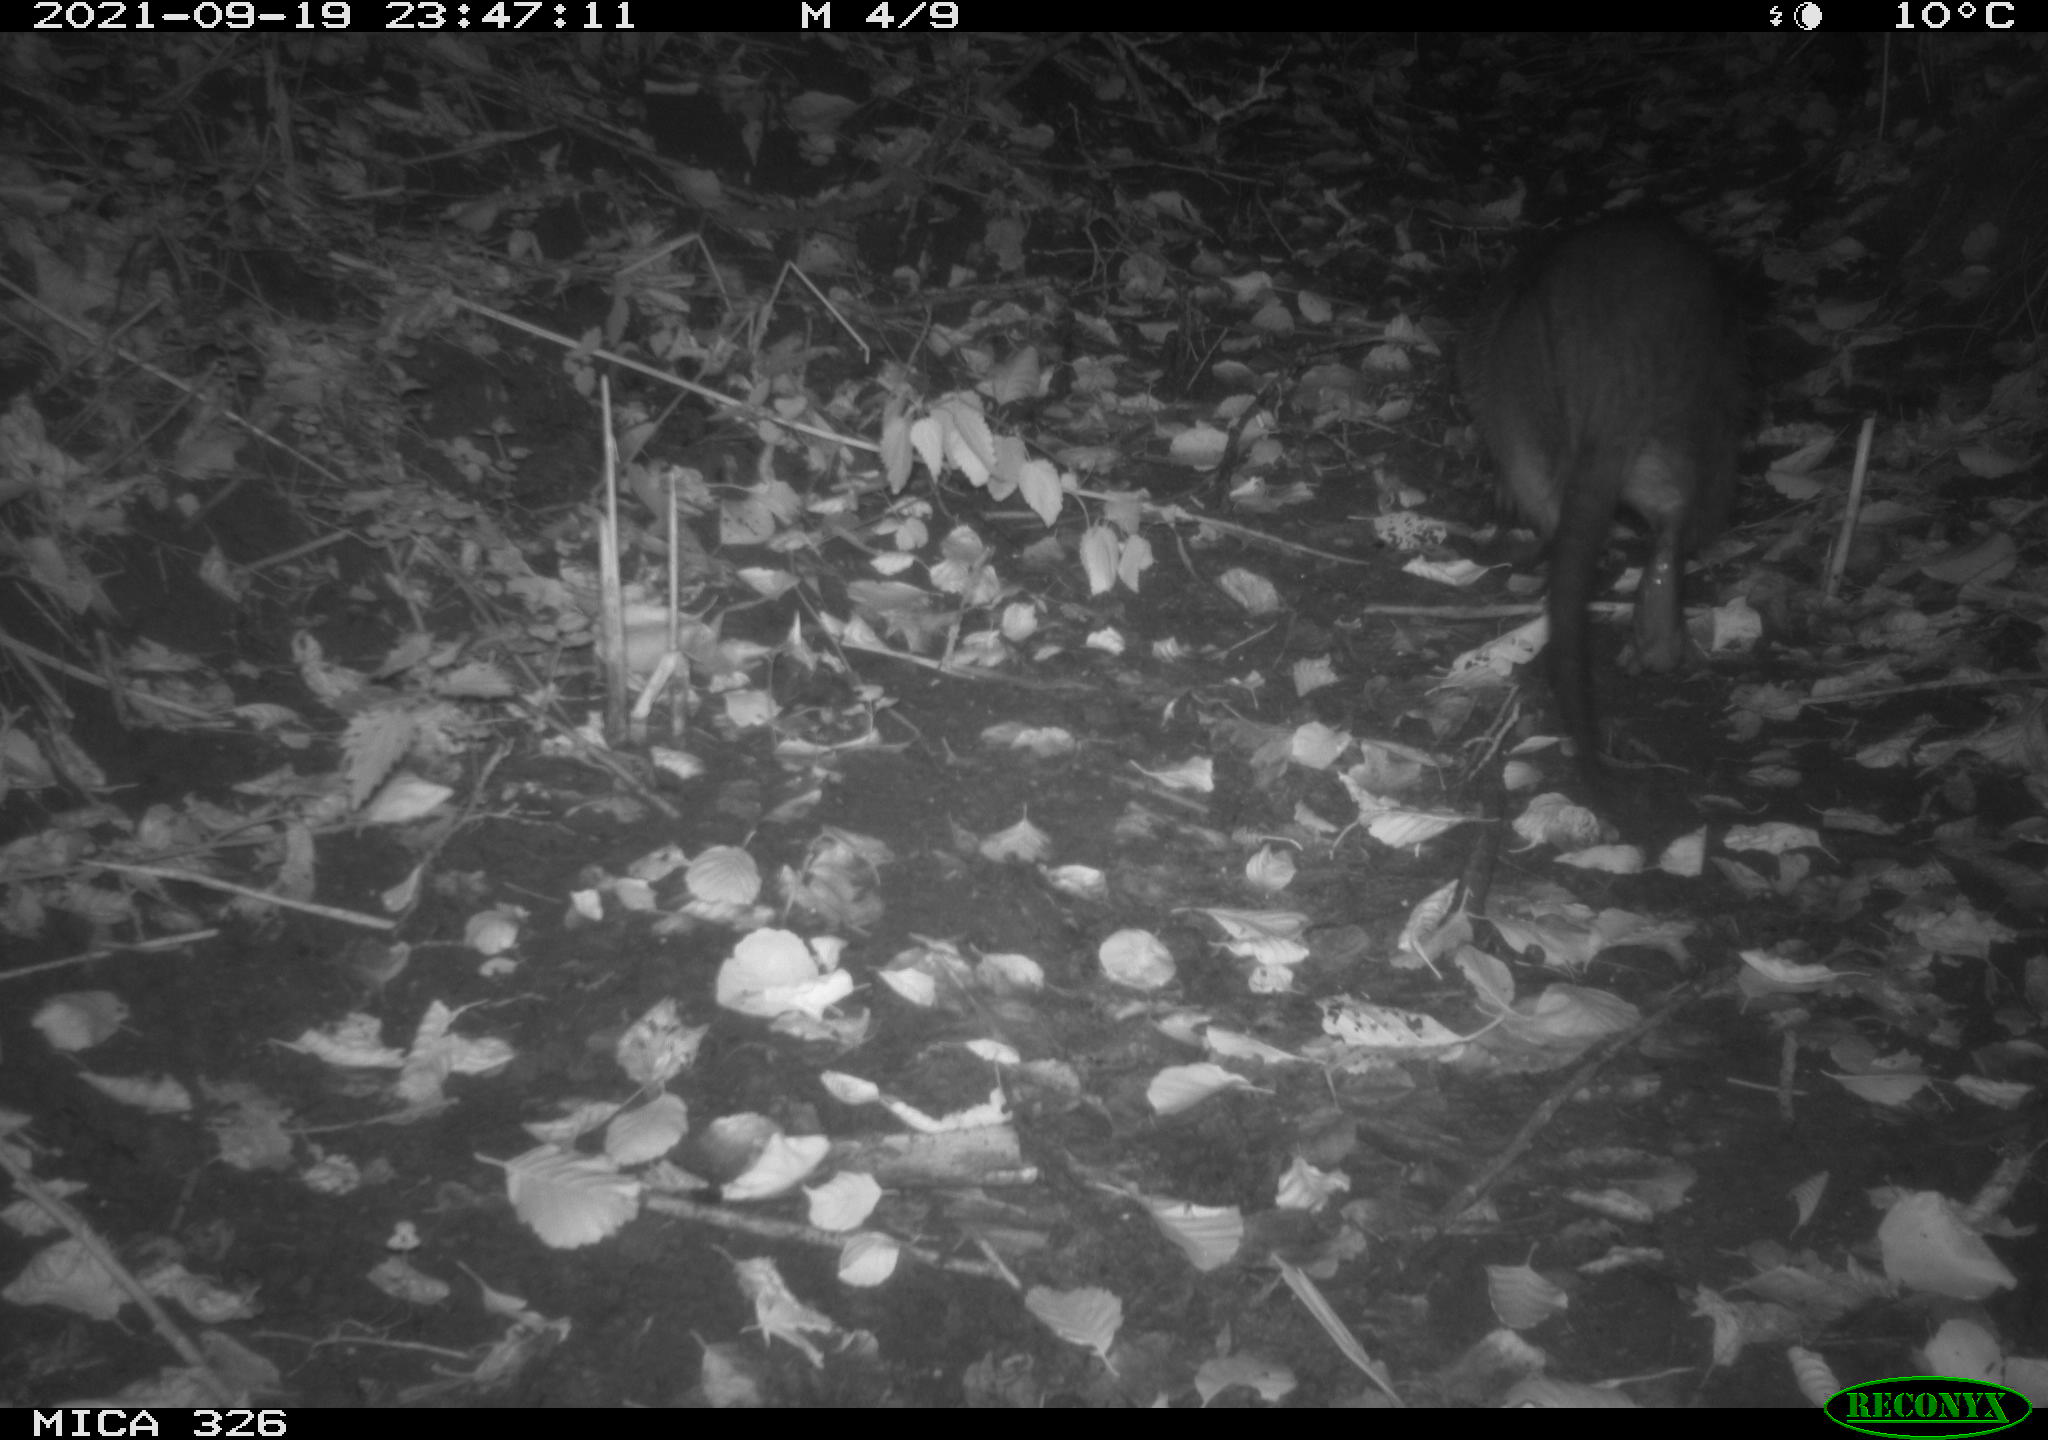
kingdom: Animalia
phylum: Chordata
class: Mammalia
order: Rodentia
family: Myocastoridae
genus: Myocastor
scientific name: Myocastor coypus
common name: Coypu
